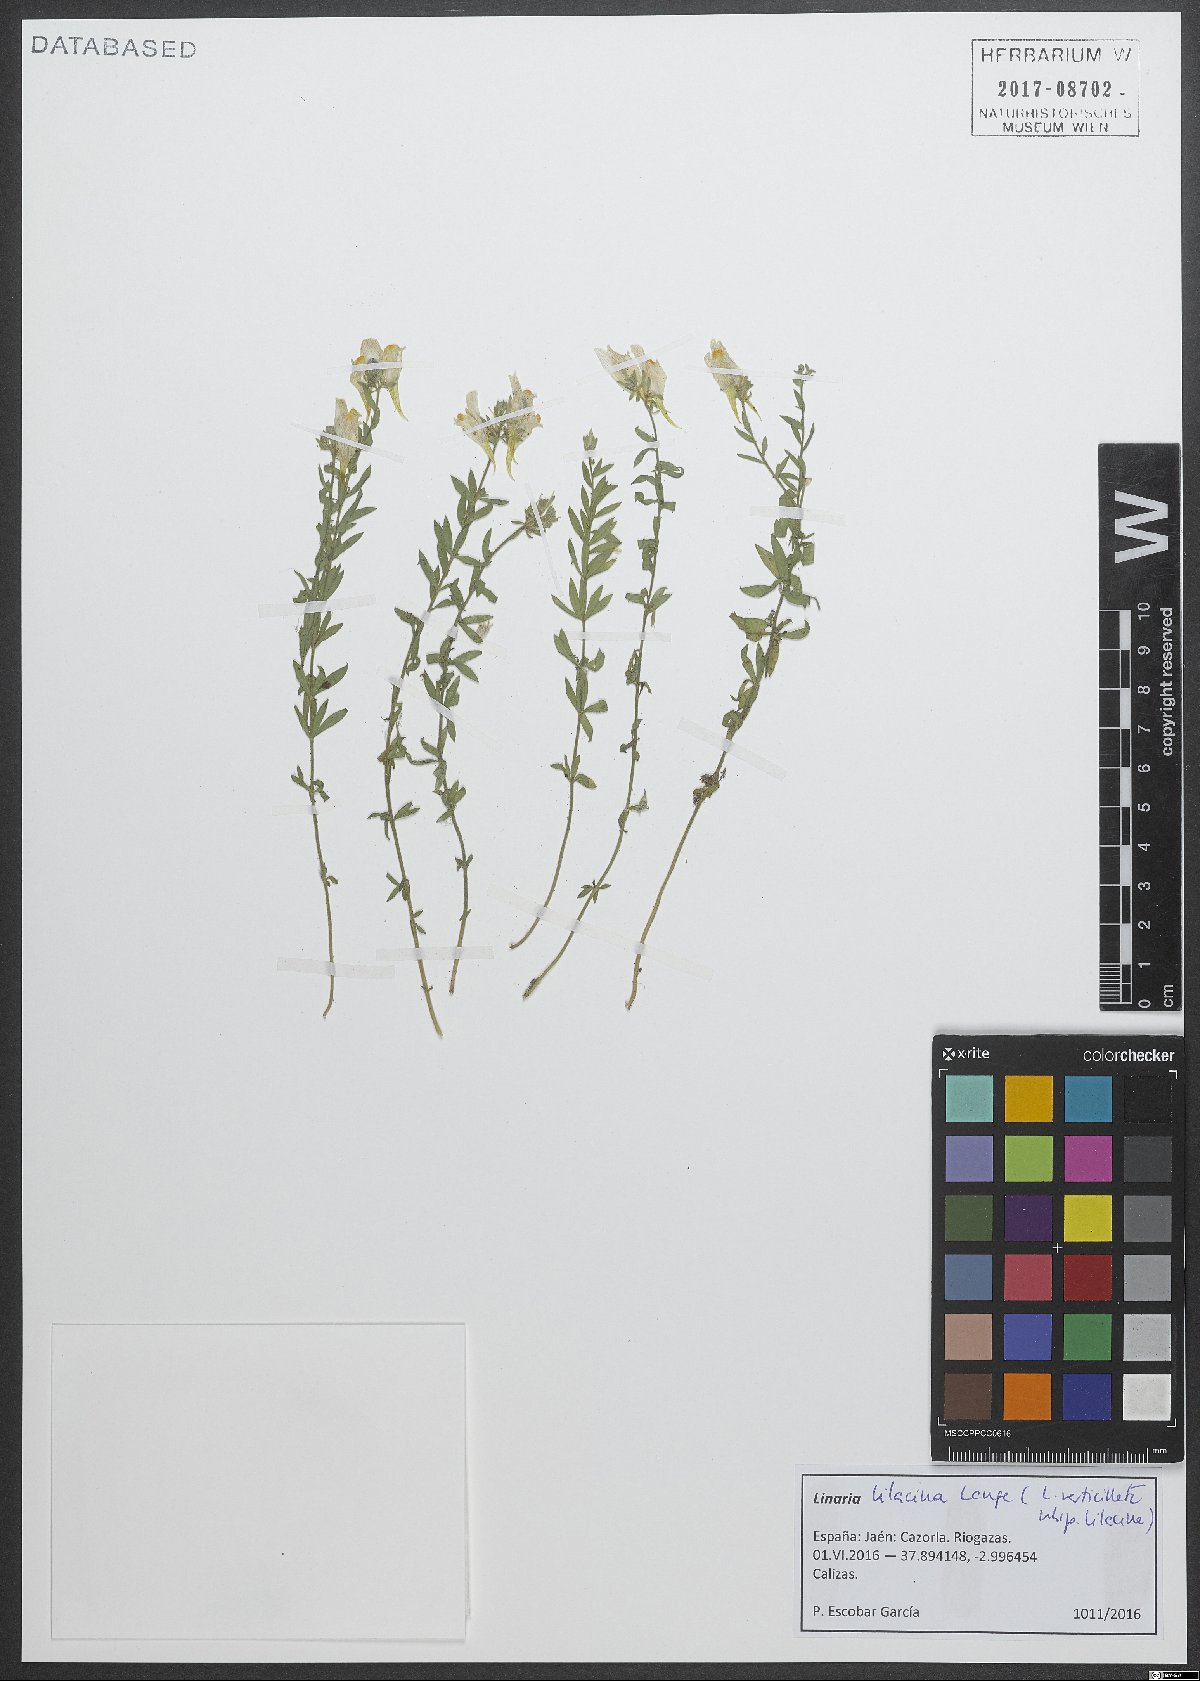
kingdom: Plantae
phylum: Tracheophyta
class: Magnoliopsida
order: Lamiales
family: Plantaginaceae
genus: Linaria
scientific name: Linaria verticillata
